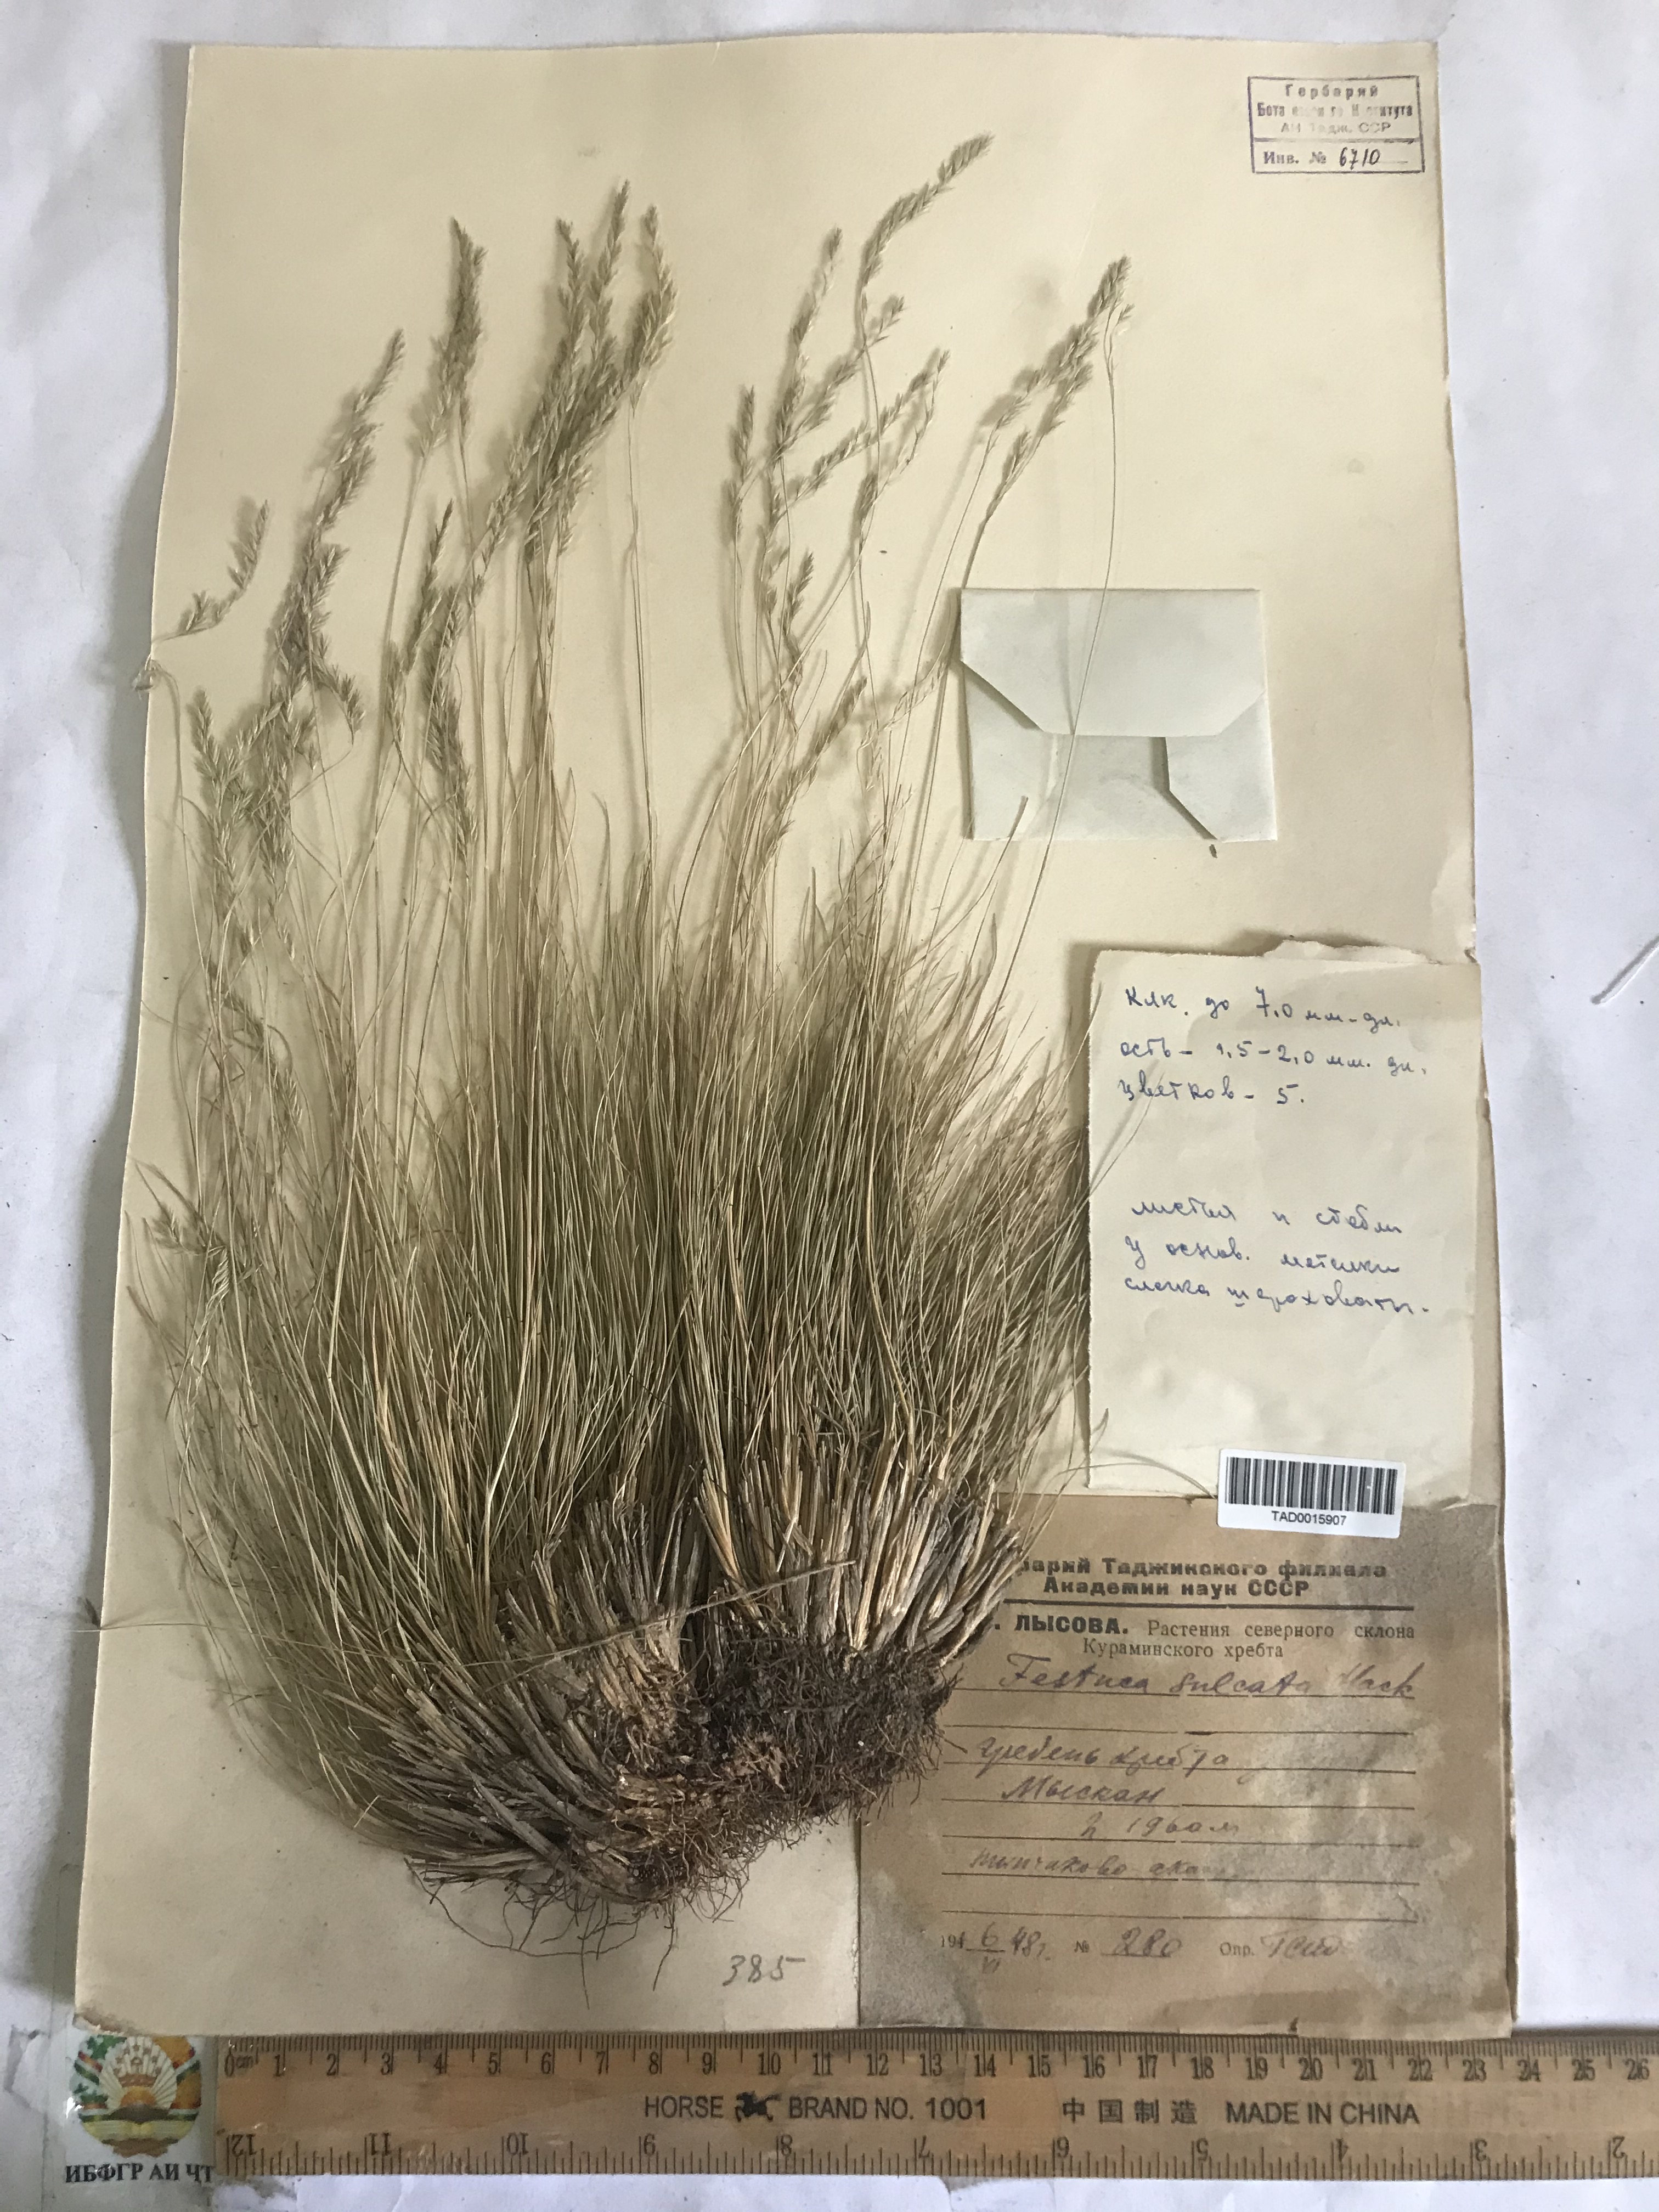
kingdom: Plantae
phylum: Tracheophyta
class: Liliopsida
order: Poales
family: Poaceae
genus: Festuca
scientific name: Festuca sulcata
